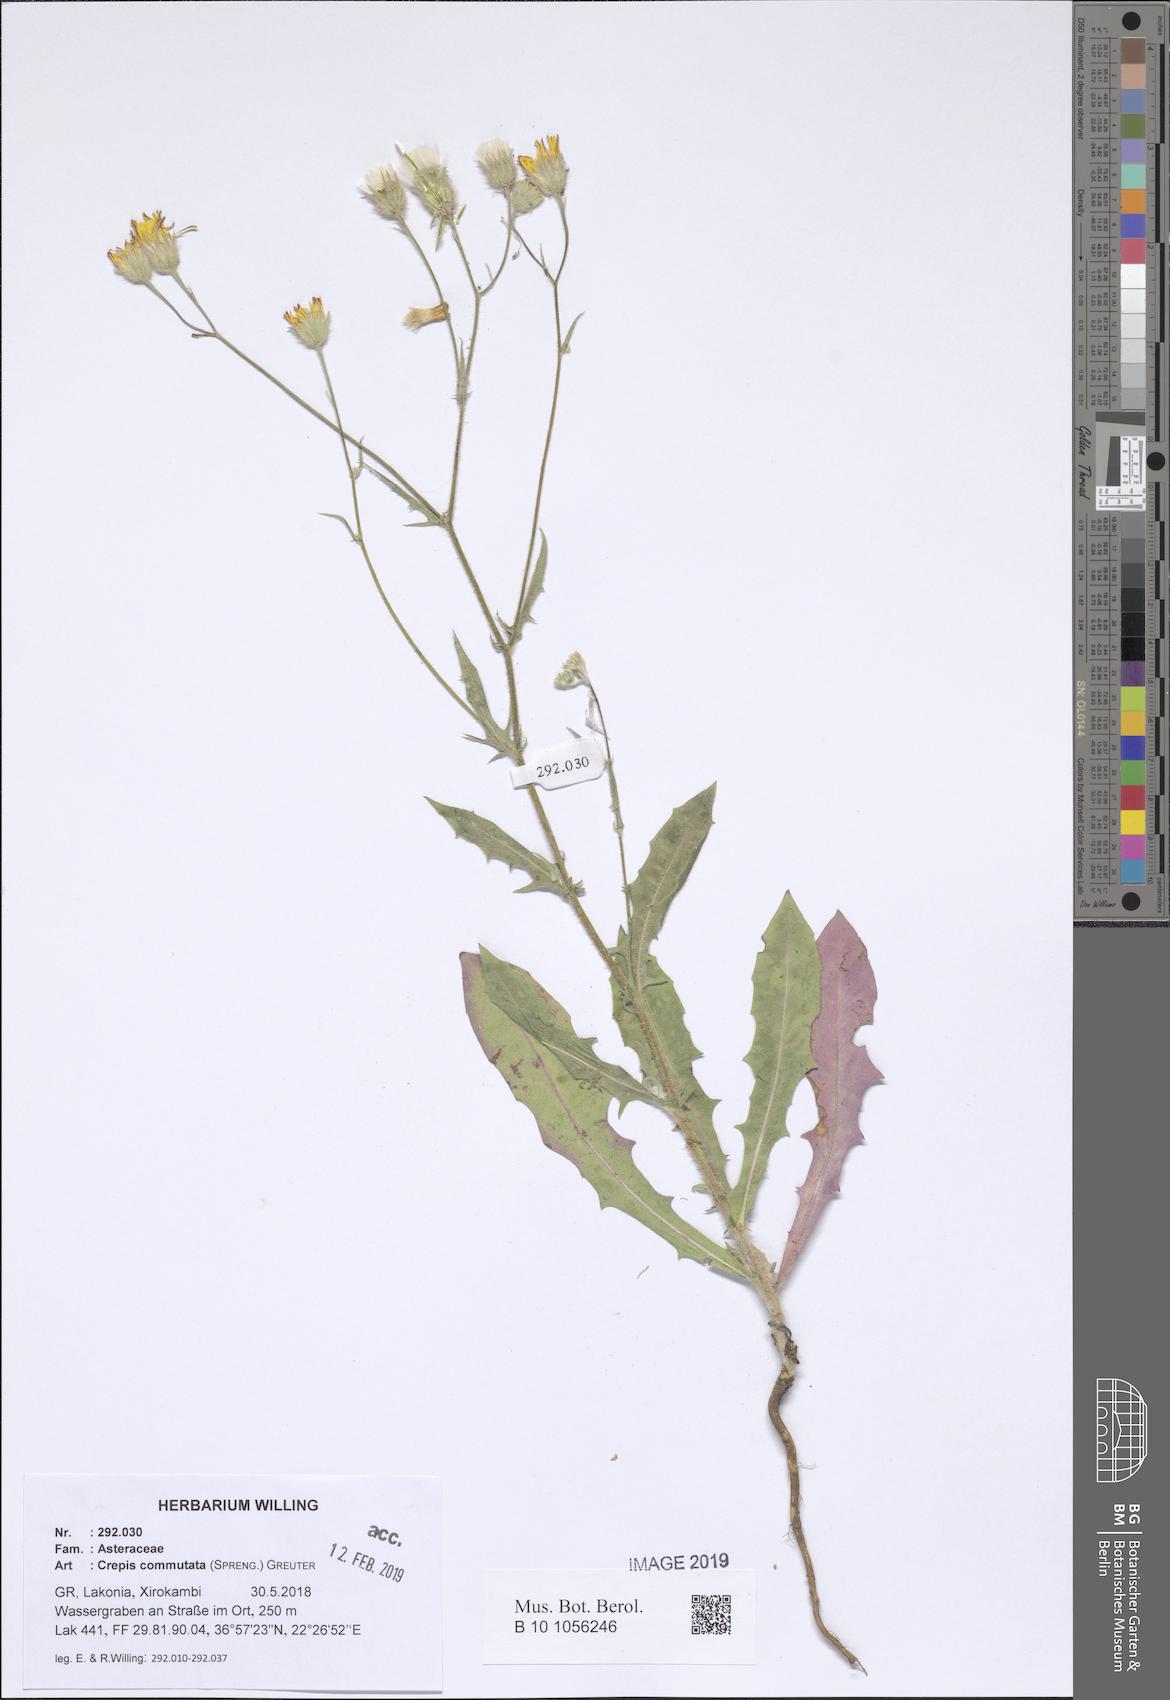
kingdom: Plantae
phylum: Tracheophyta
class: Magnoliopsida
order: Asterales
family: Asteraceae
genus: Crepis
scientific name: Crepis commutata
